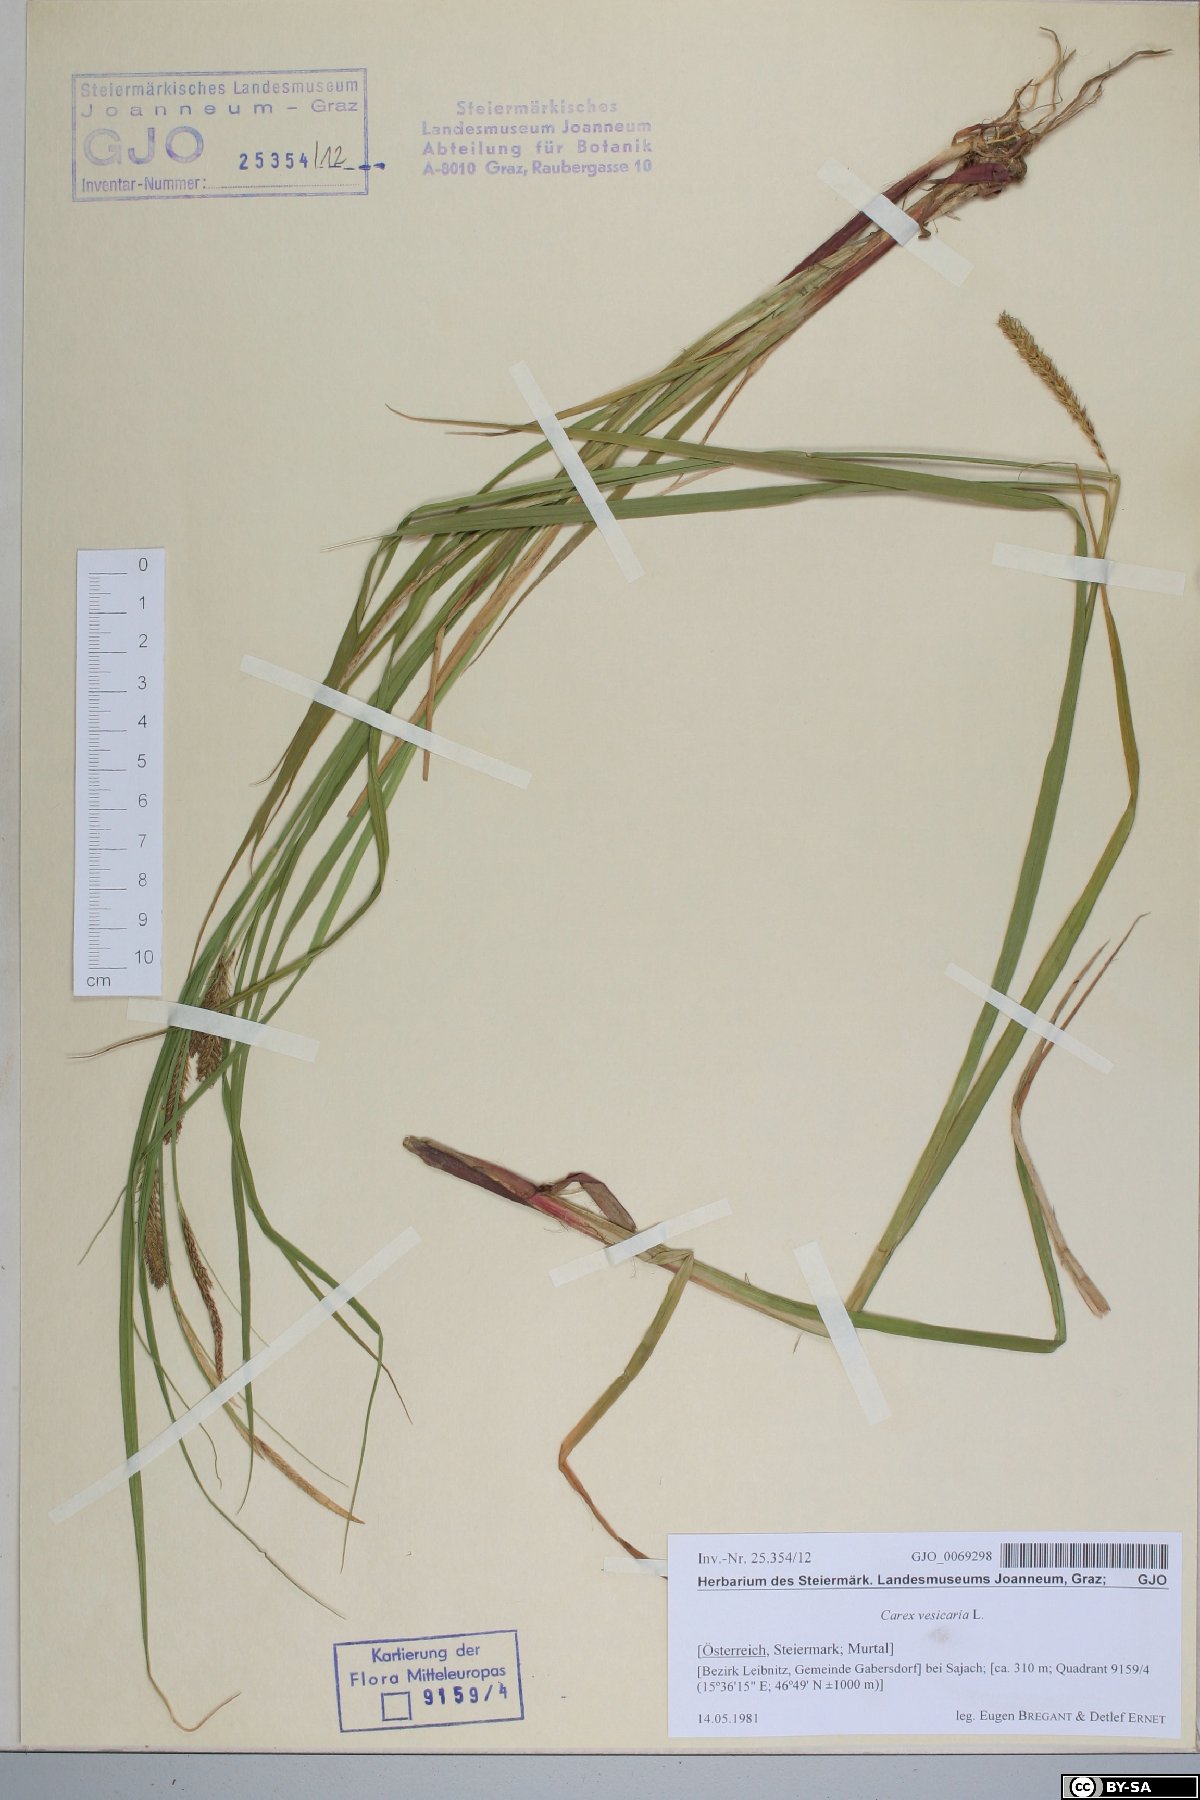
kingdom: Plantae
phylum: Tracheophyta
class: Liliopsida
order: Poales
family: Cyperaceae
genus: Carex
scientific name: Carex vesicaria
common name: Bladder-sedge
